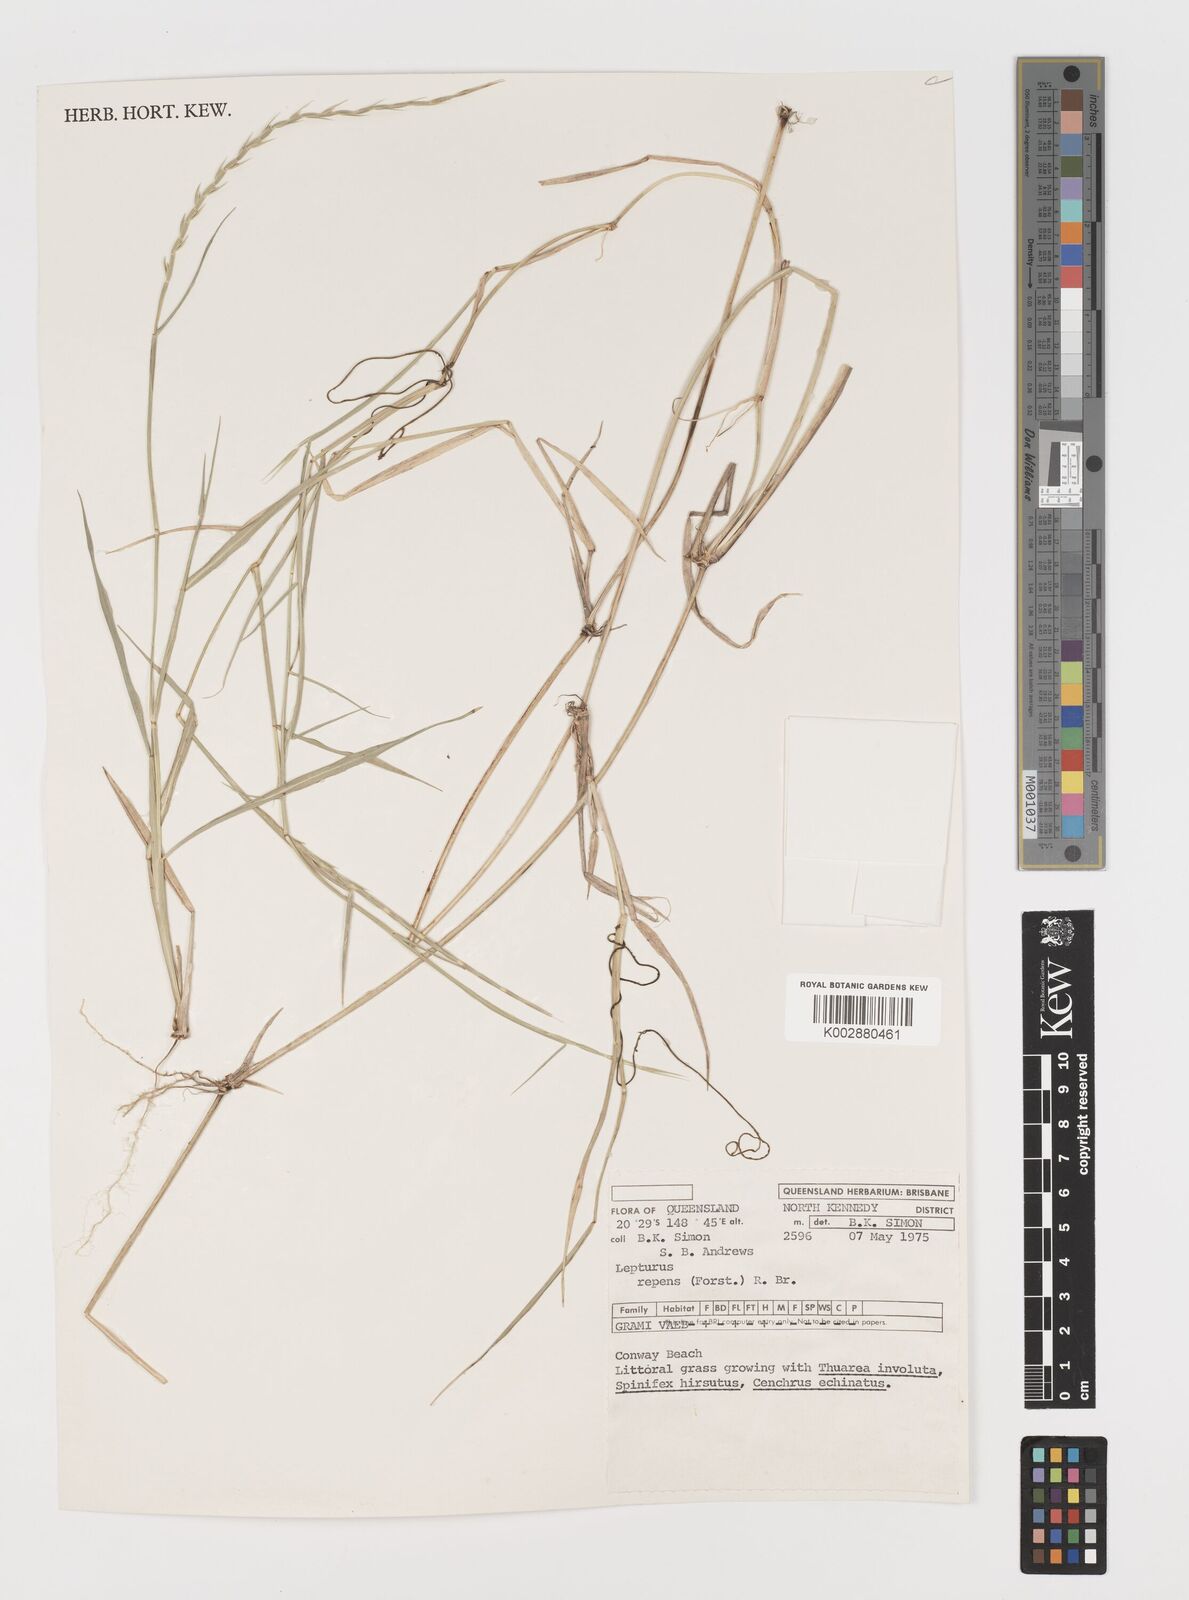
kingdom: Plantae
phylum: Tracheophyta
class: Liliopsida
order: Poales
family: Poaceae
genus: Lepturus
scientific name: Lepturus repens
